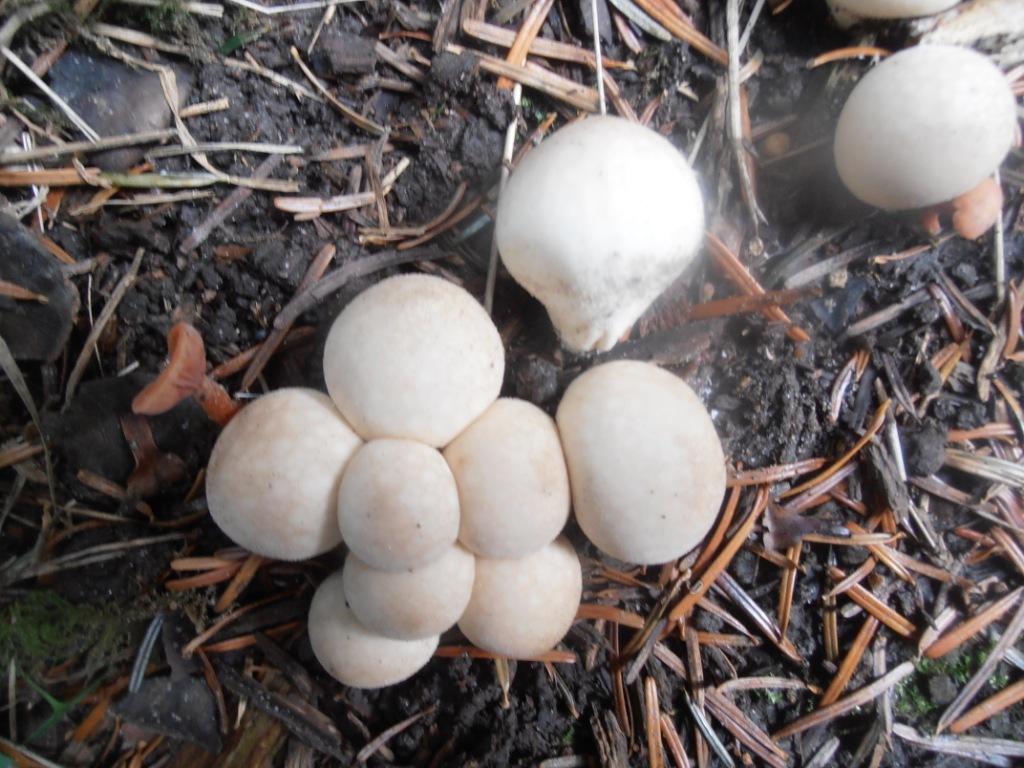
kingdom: Fungi
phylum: Basidiomycota
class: Agaricomycetes
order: Agaricales
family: Lycoperdaceae
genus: Apioperdon
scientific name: Apioperdon pyriforme
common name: pære-støvbold
